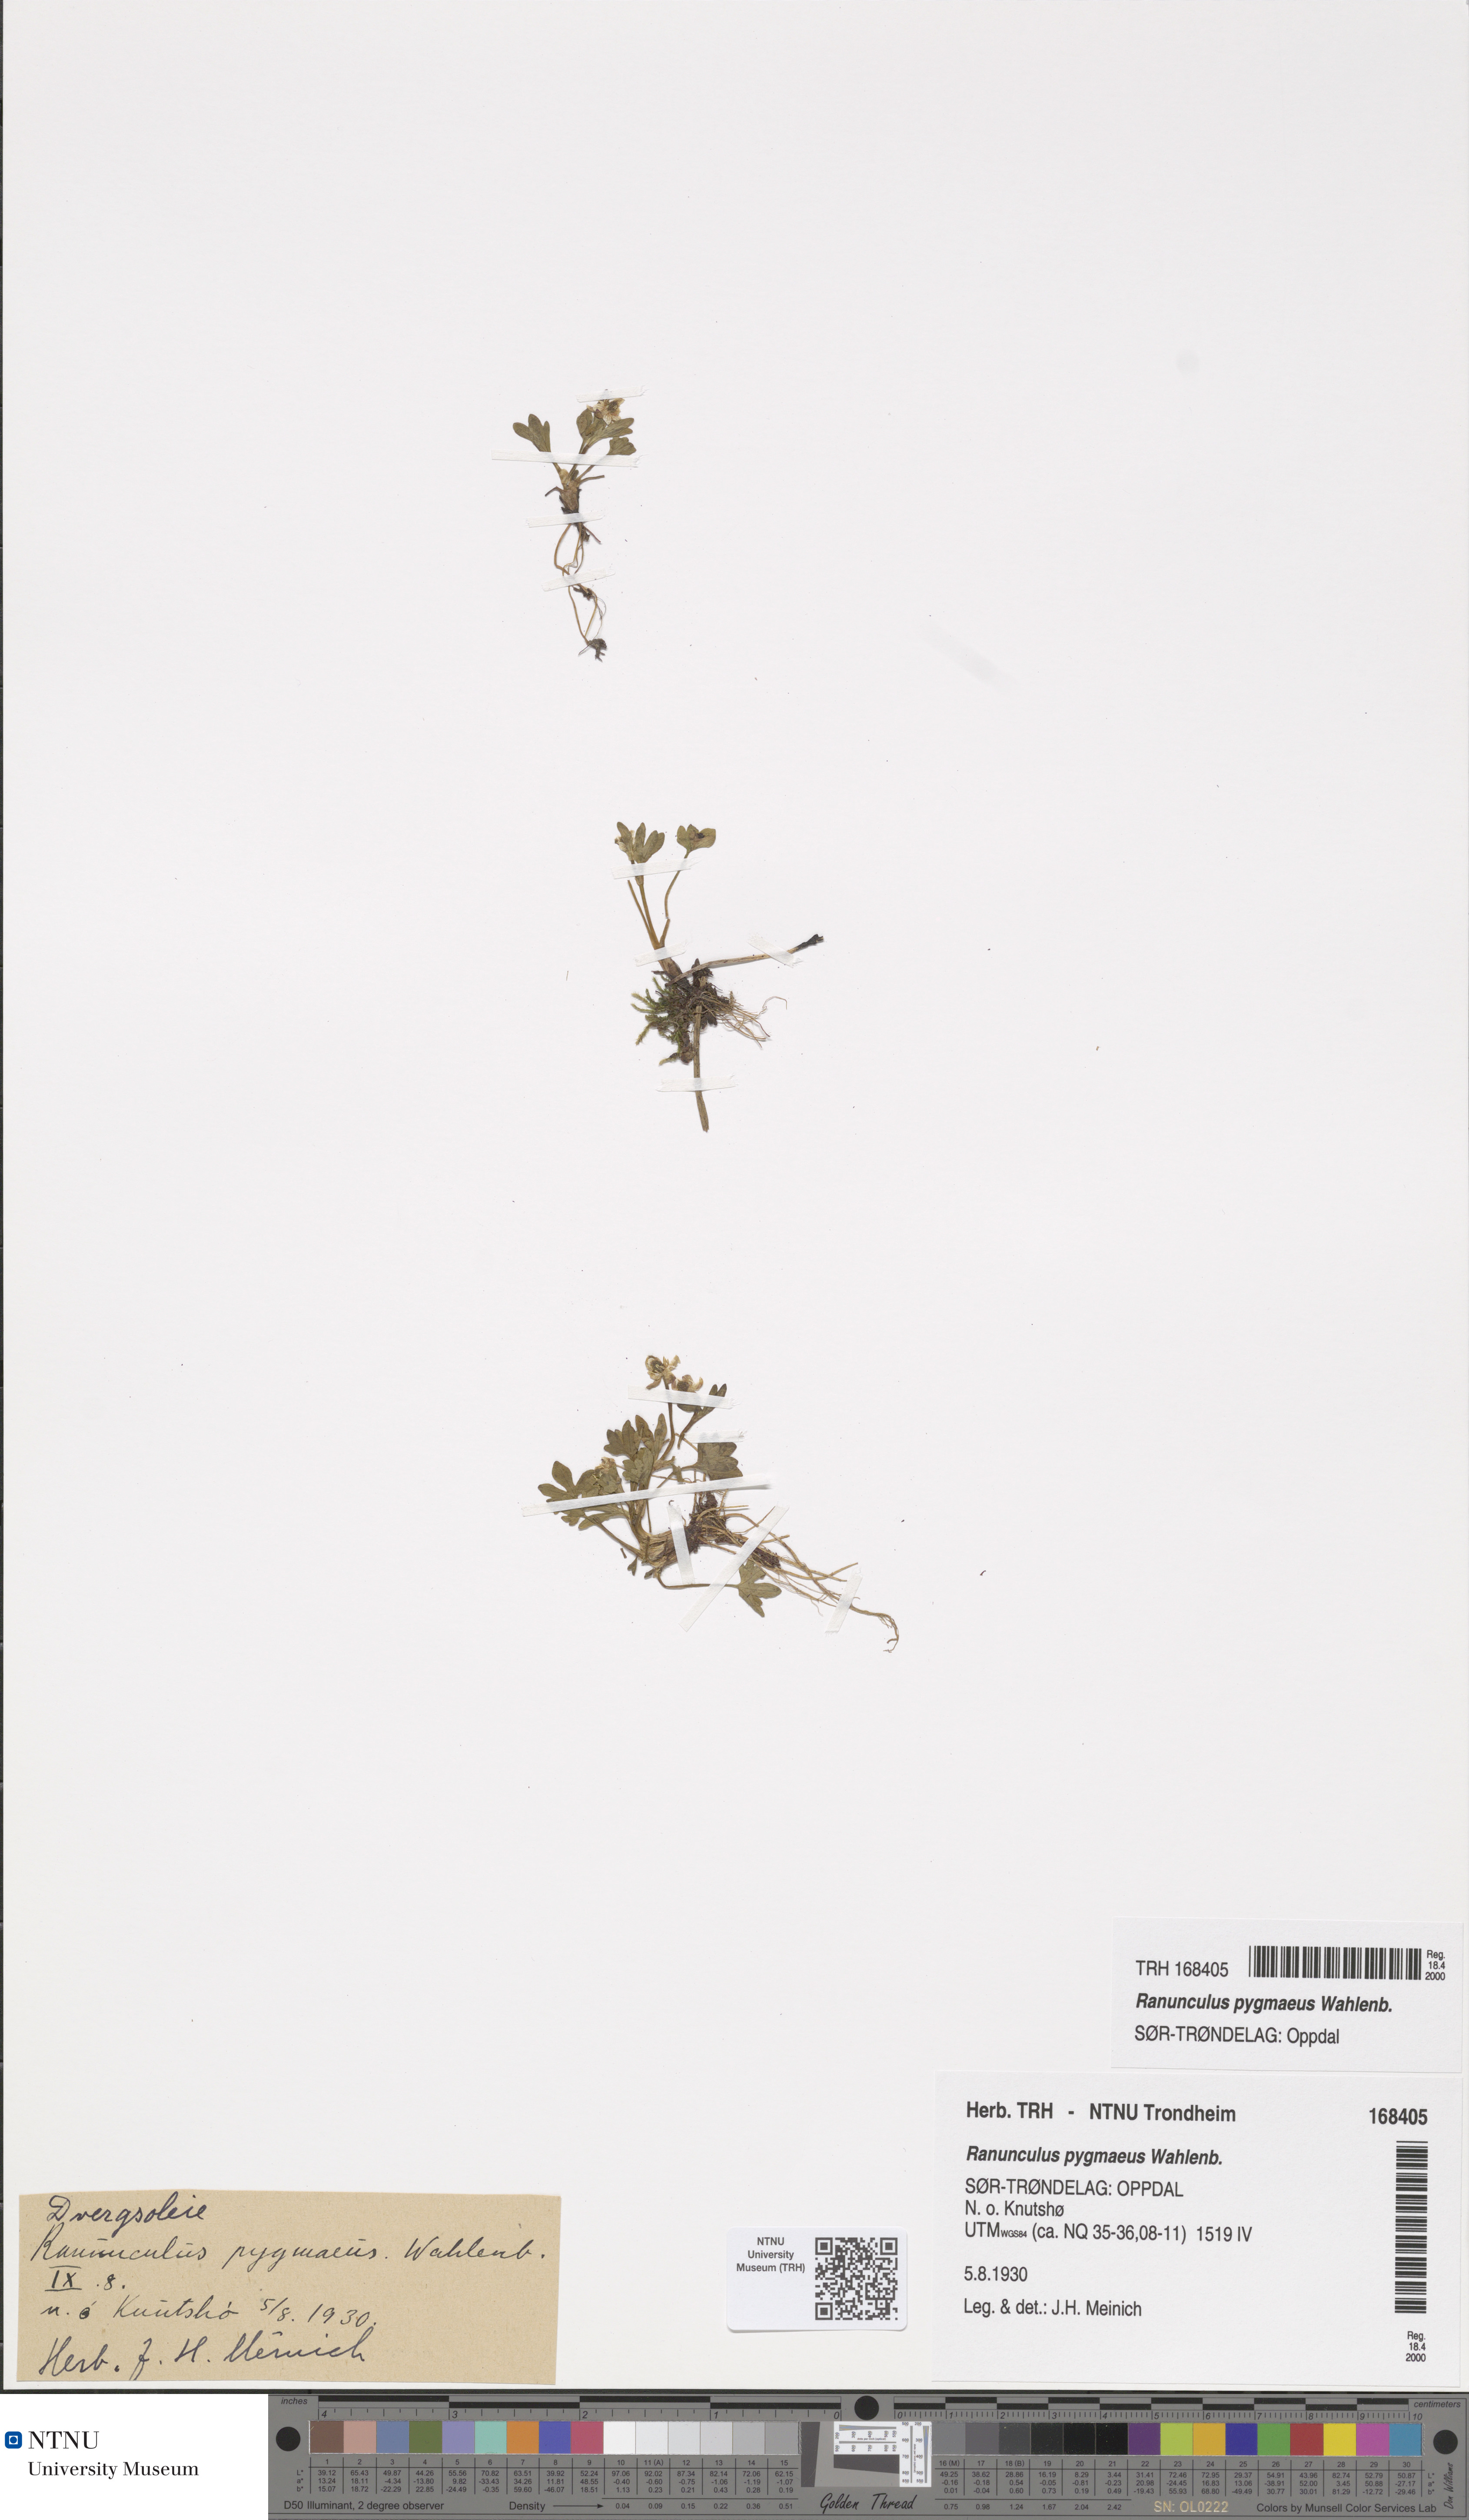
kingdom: Plantae
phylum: Tracheophyta
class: Magnoliopsida
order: Ranunculales
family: Ranunculaceae
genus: Ranunculus
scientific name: Ranunculus pygmaeus
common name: Dwarf buttercup
